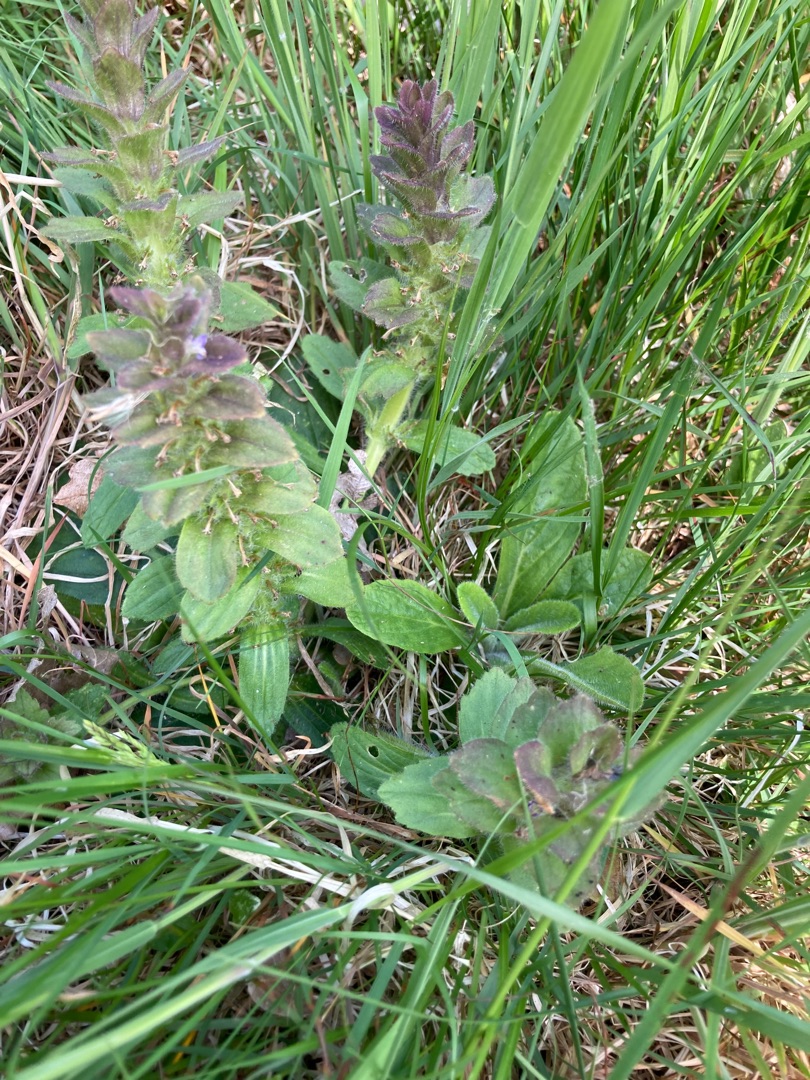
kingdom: Plantae
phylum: Tracheophyta
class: Magnoliopsida
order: Lamiales
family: Lamiaceae
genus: Ajuga
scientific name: Ajuga pyramidalis
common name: Pyramide-læbeløs
